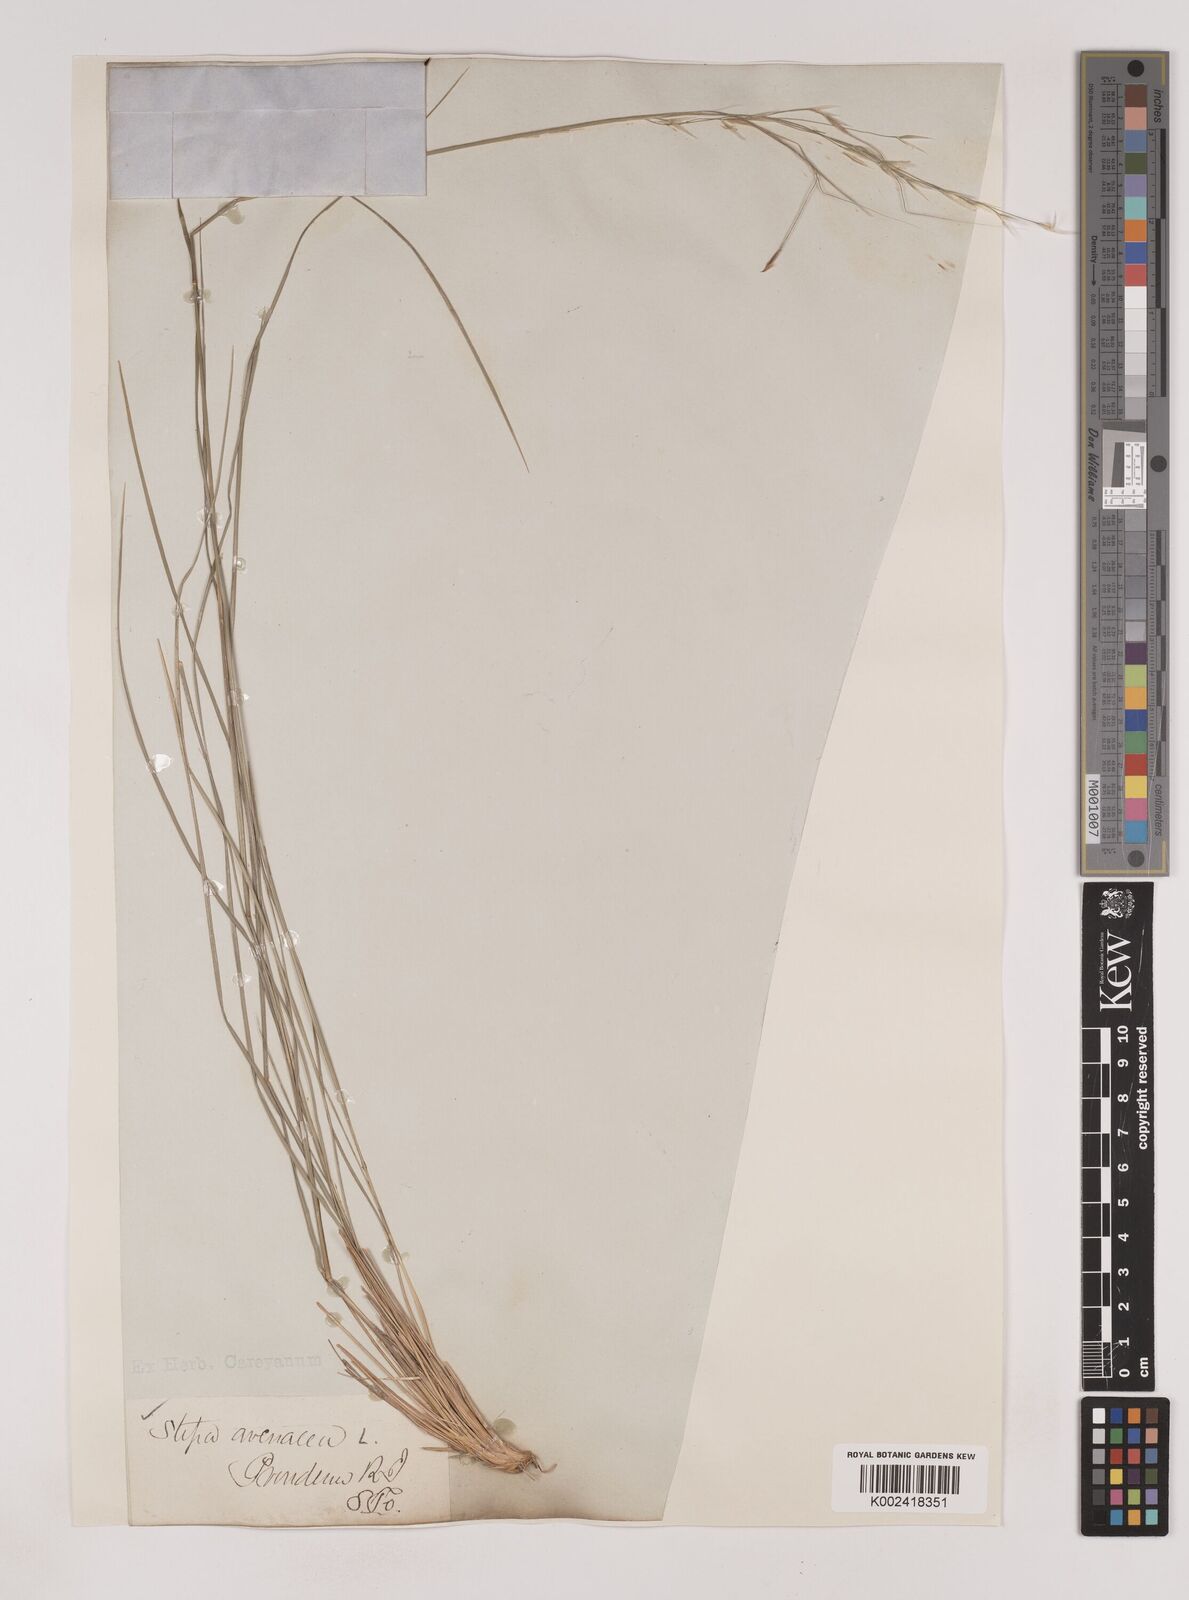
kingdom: Plantae
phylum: Tracheophyta
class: Liliopsida
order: Poales
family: Poaceae
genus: Piptochaetium
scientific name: Piptochaetium avenaceum
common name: Black bunchgrass
